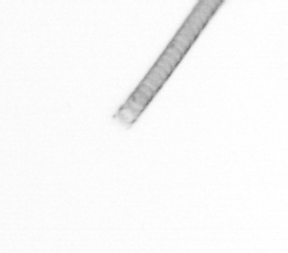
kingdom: Chromista
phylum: Ochrophyta
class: Bacillariophyceae
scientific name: Bacillariophyceae
